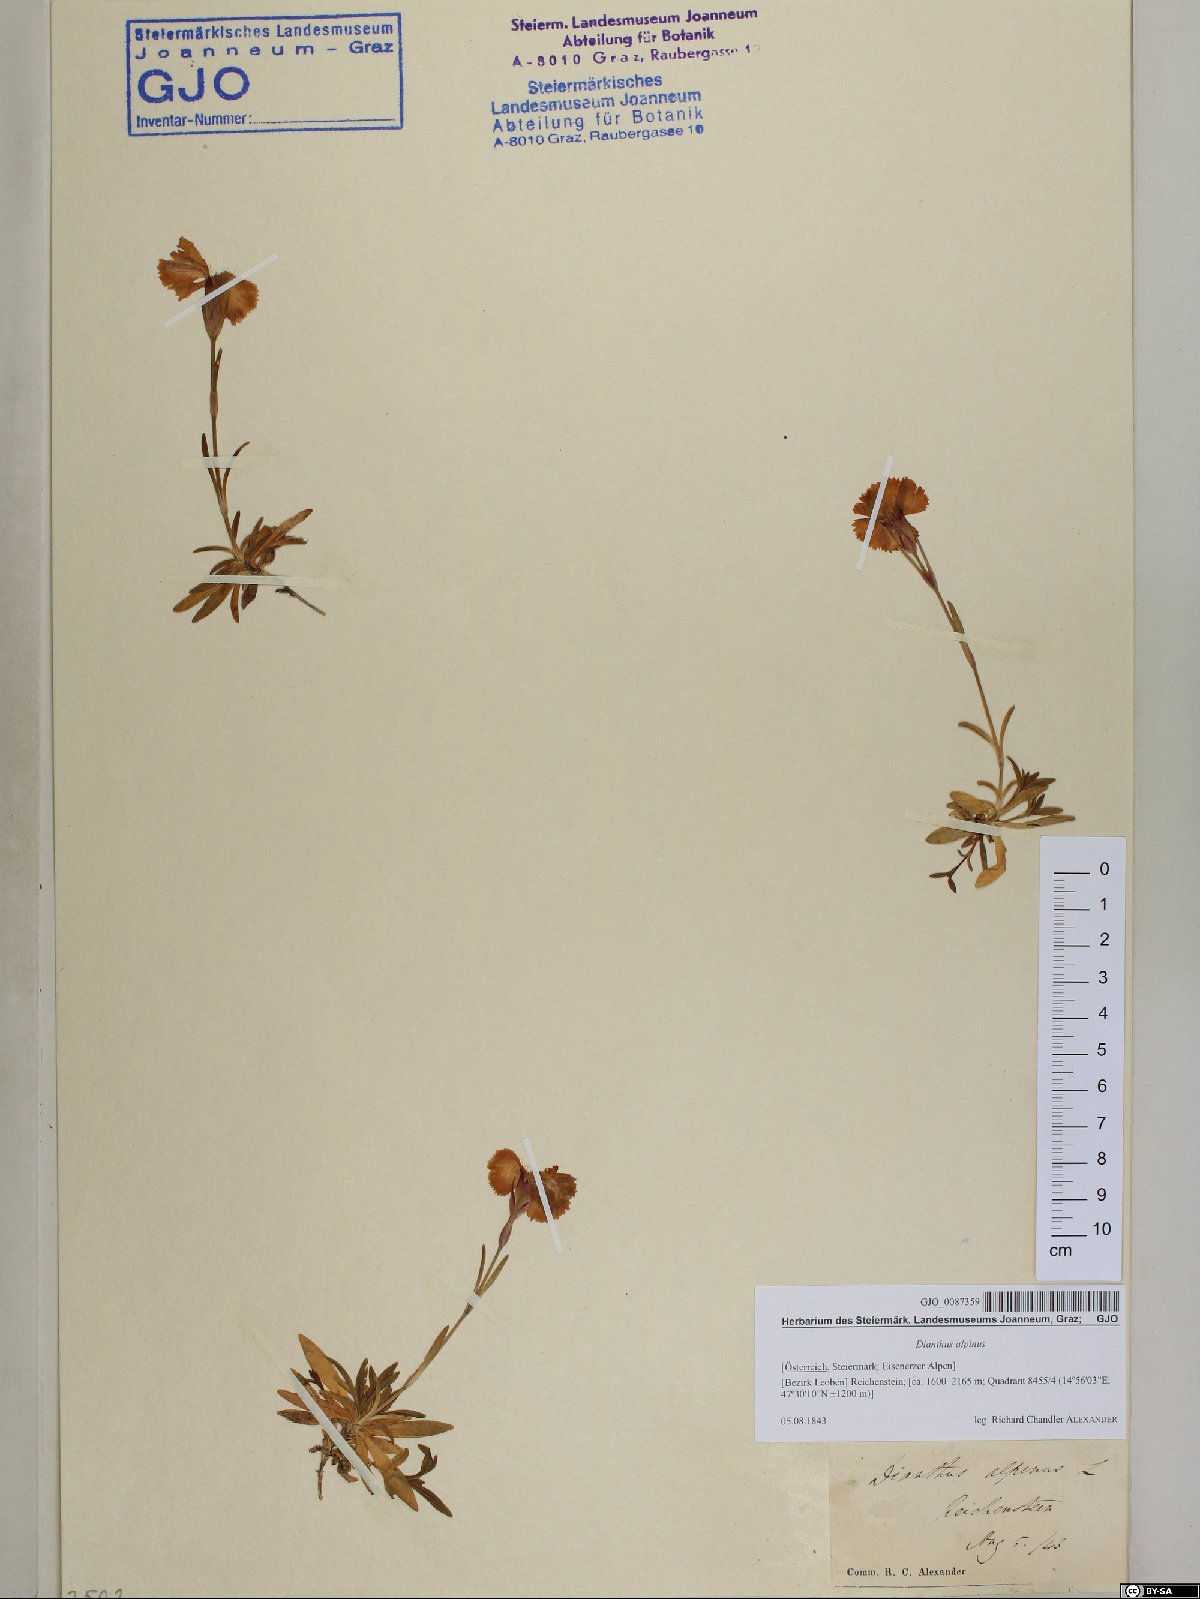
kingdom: Plantae
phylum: Tracheophyta
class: Magnoliopsida
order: Caryophyllales
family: Caryophyllaceae
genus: Dianthus
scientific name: Dianthus alpinus
